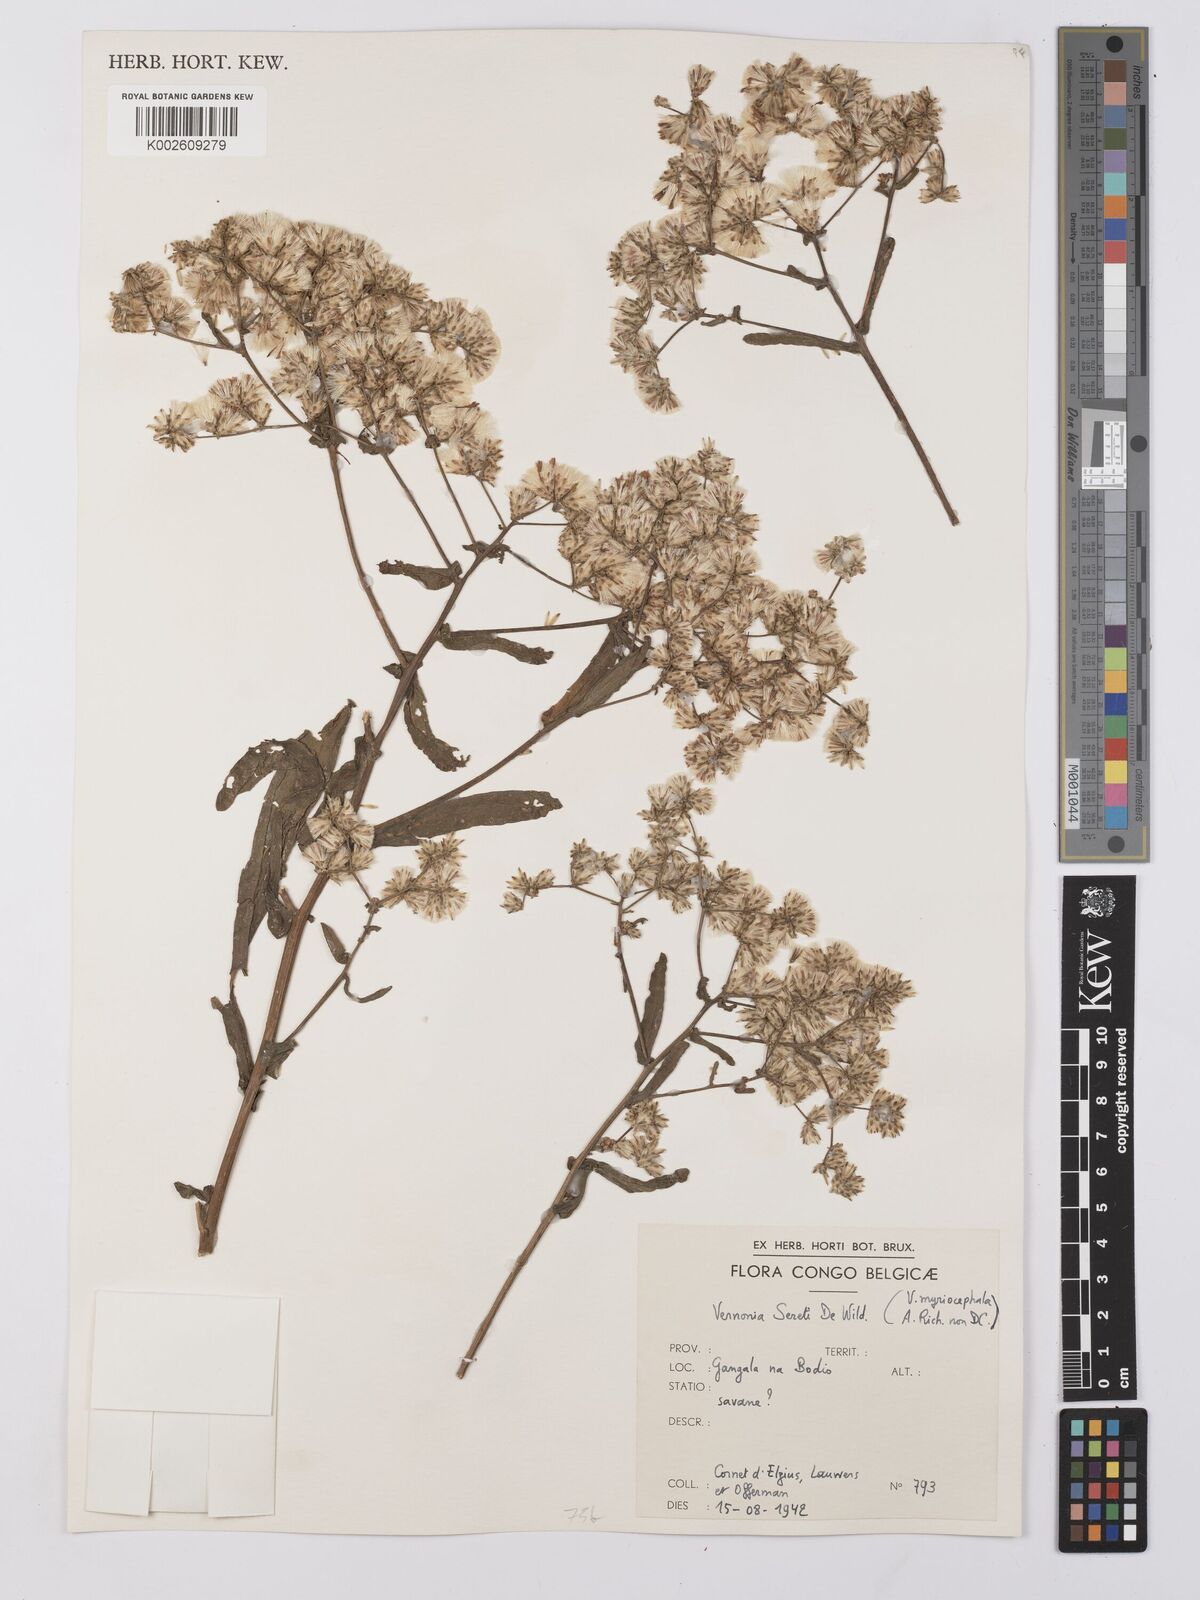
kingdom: Plantae
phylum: Tracheophyta
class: Magnoliopsida
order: Asterales
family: Asteraceae
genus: Gymnanthemum
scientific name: Gymnanthemum theophrastifolium
